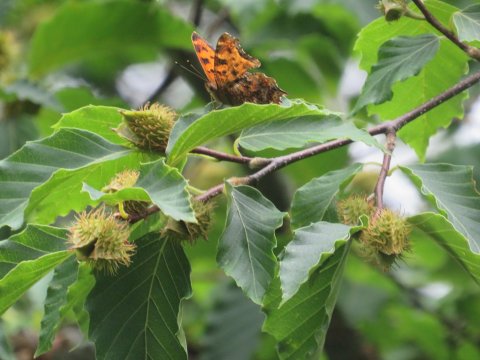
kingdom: Animalia
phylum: Arthropoda
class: Insecta
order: Lepidoptera
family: Nymphalidae
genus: Polygonia
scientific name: Polygonia comma
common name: Eastern Comma
